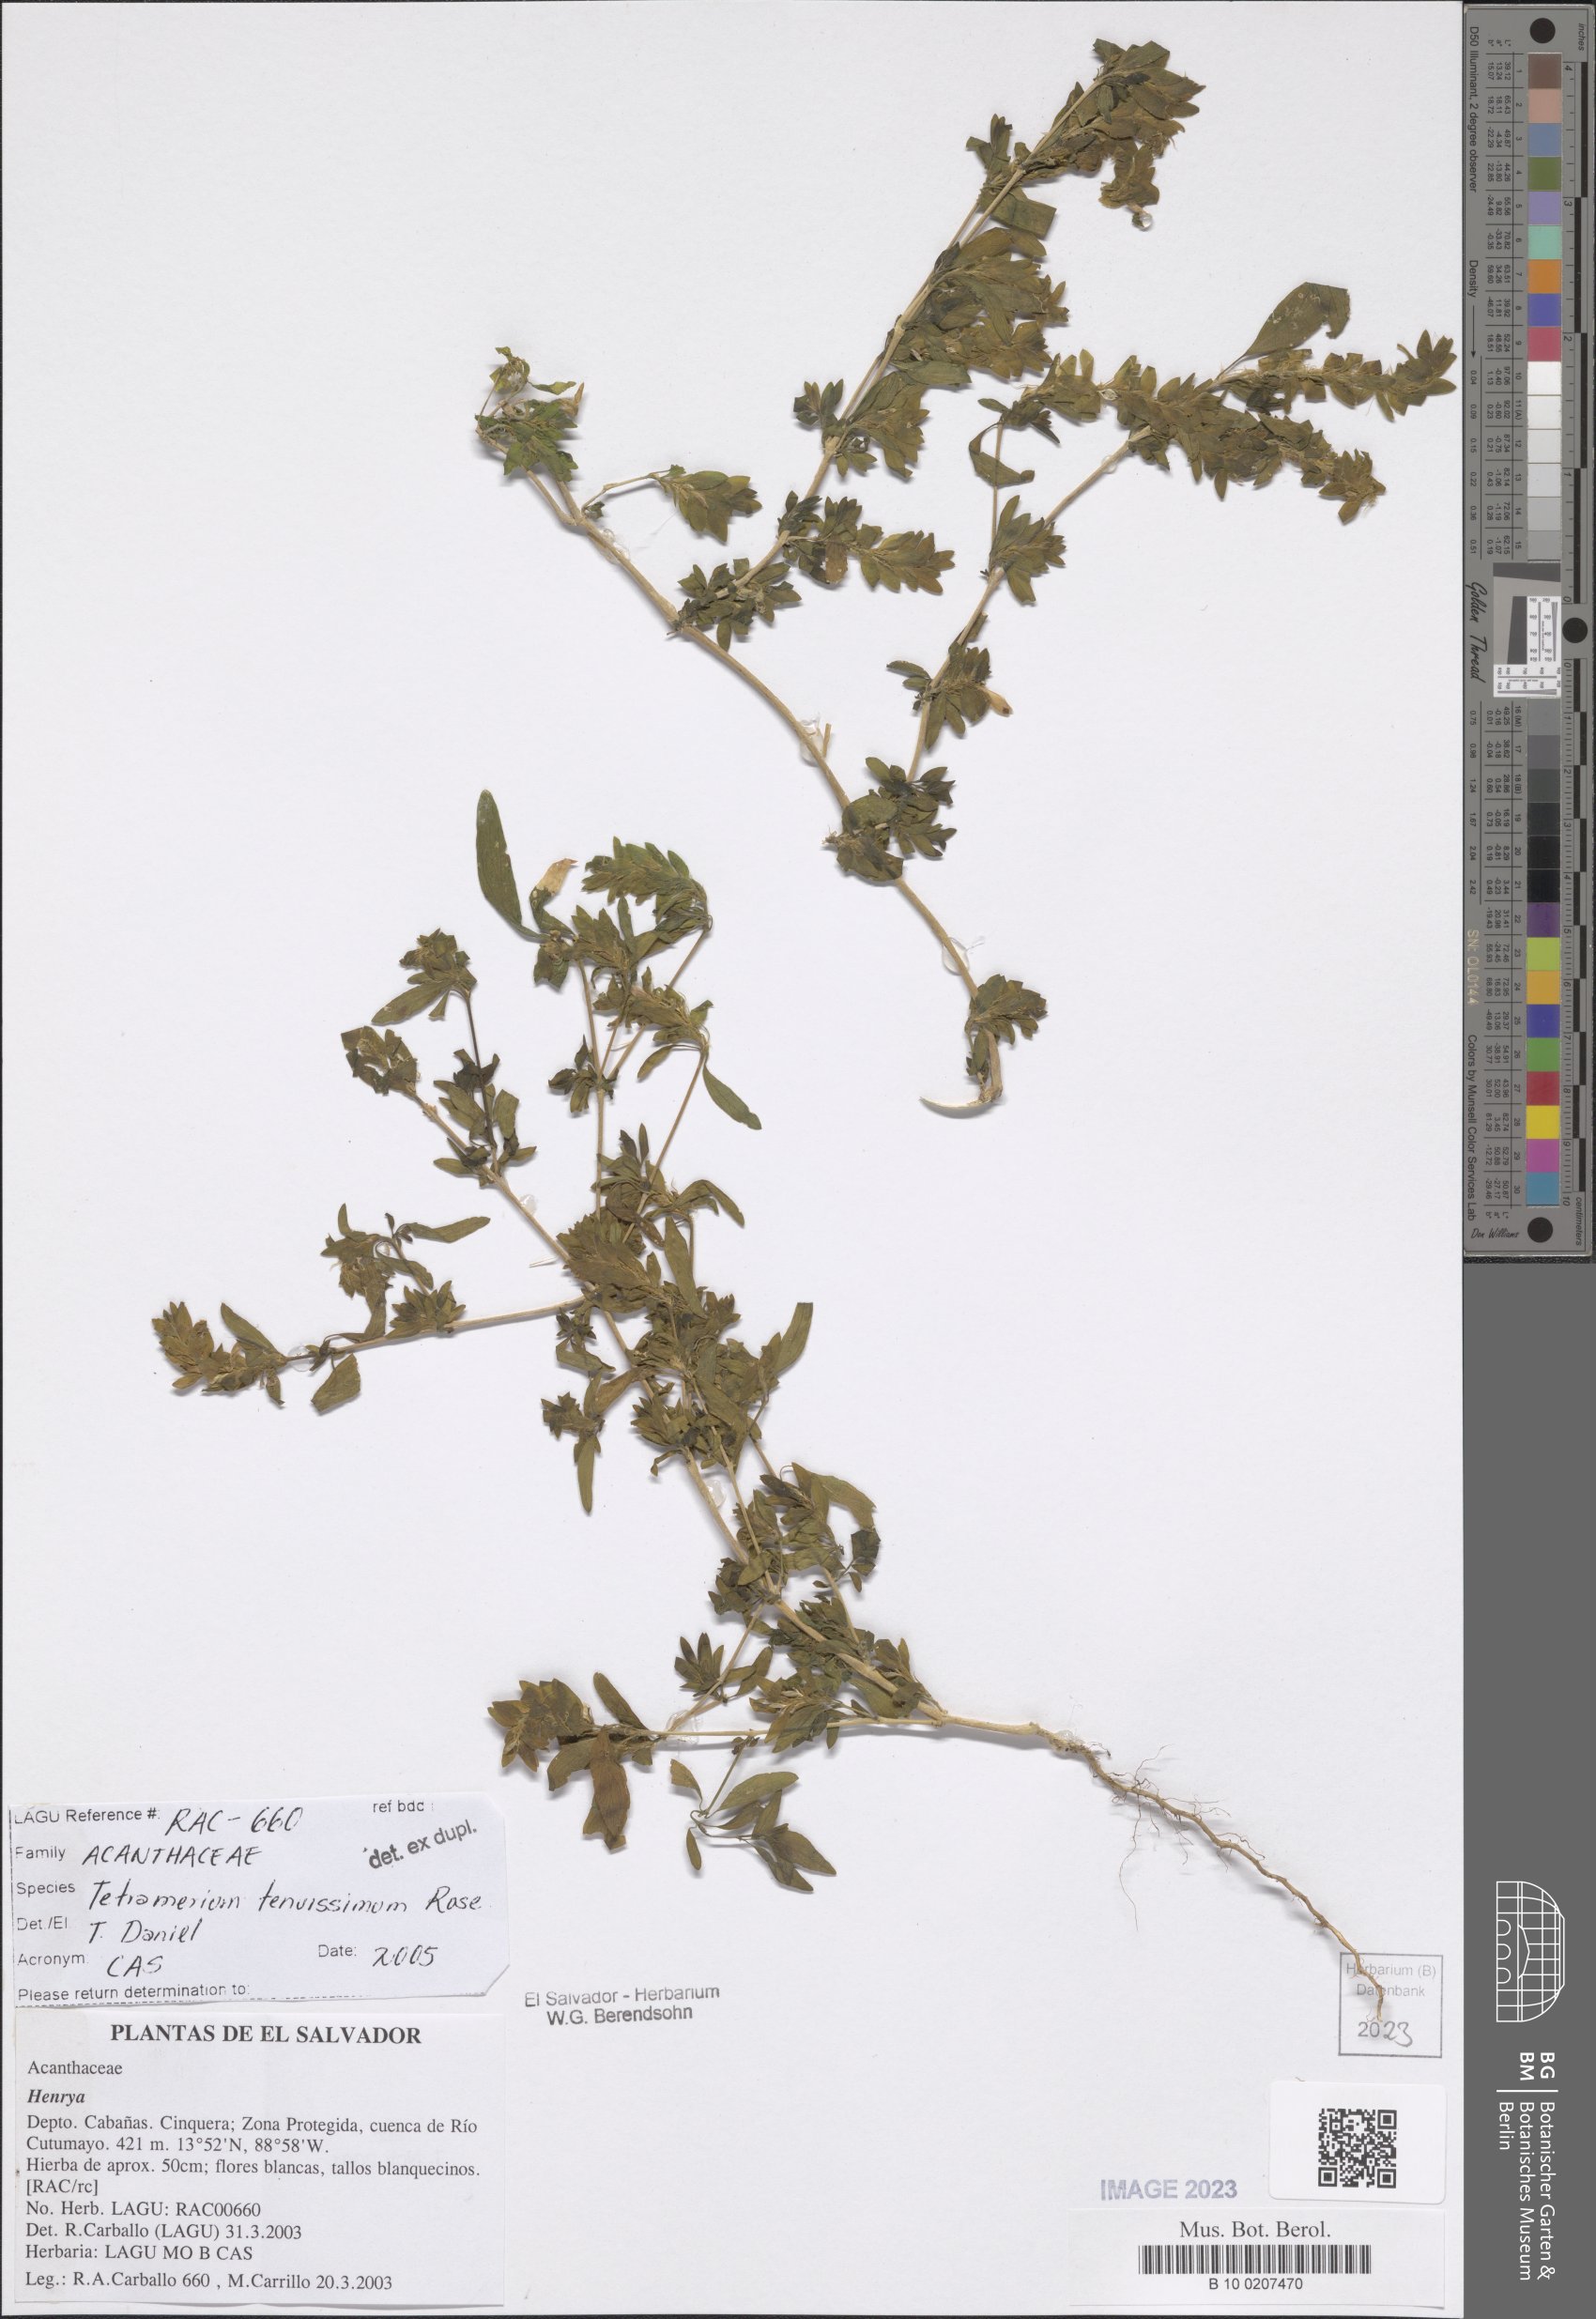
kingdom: Plantae
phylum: Tracheophyta
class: Magnoliopsida
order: Lamiales
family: Acanthaceae
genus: Tetramerium
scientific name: Tetramerium tenuissimum
